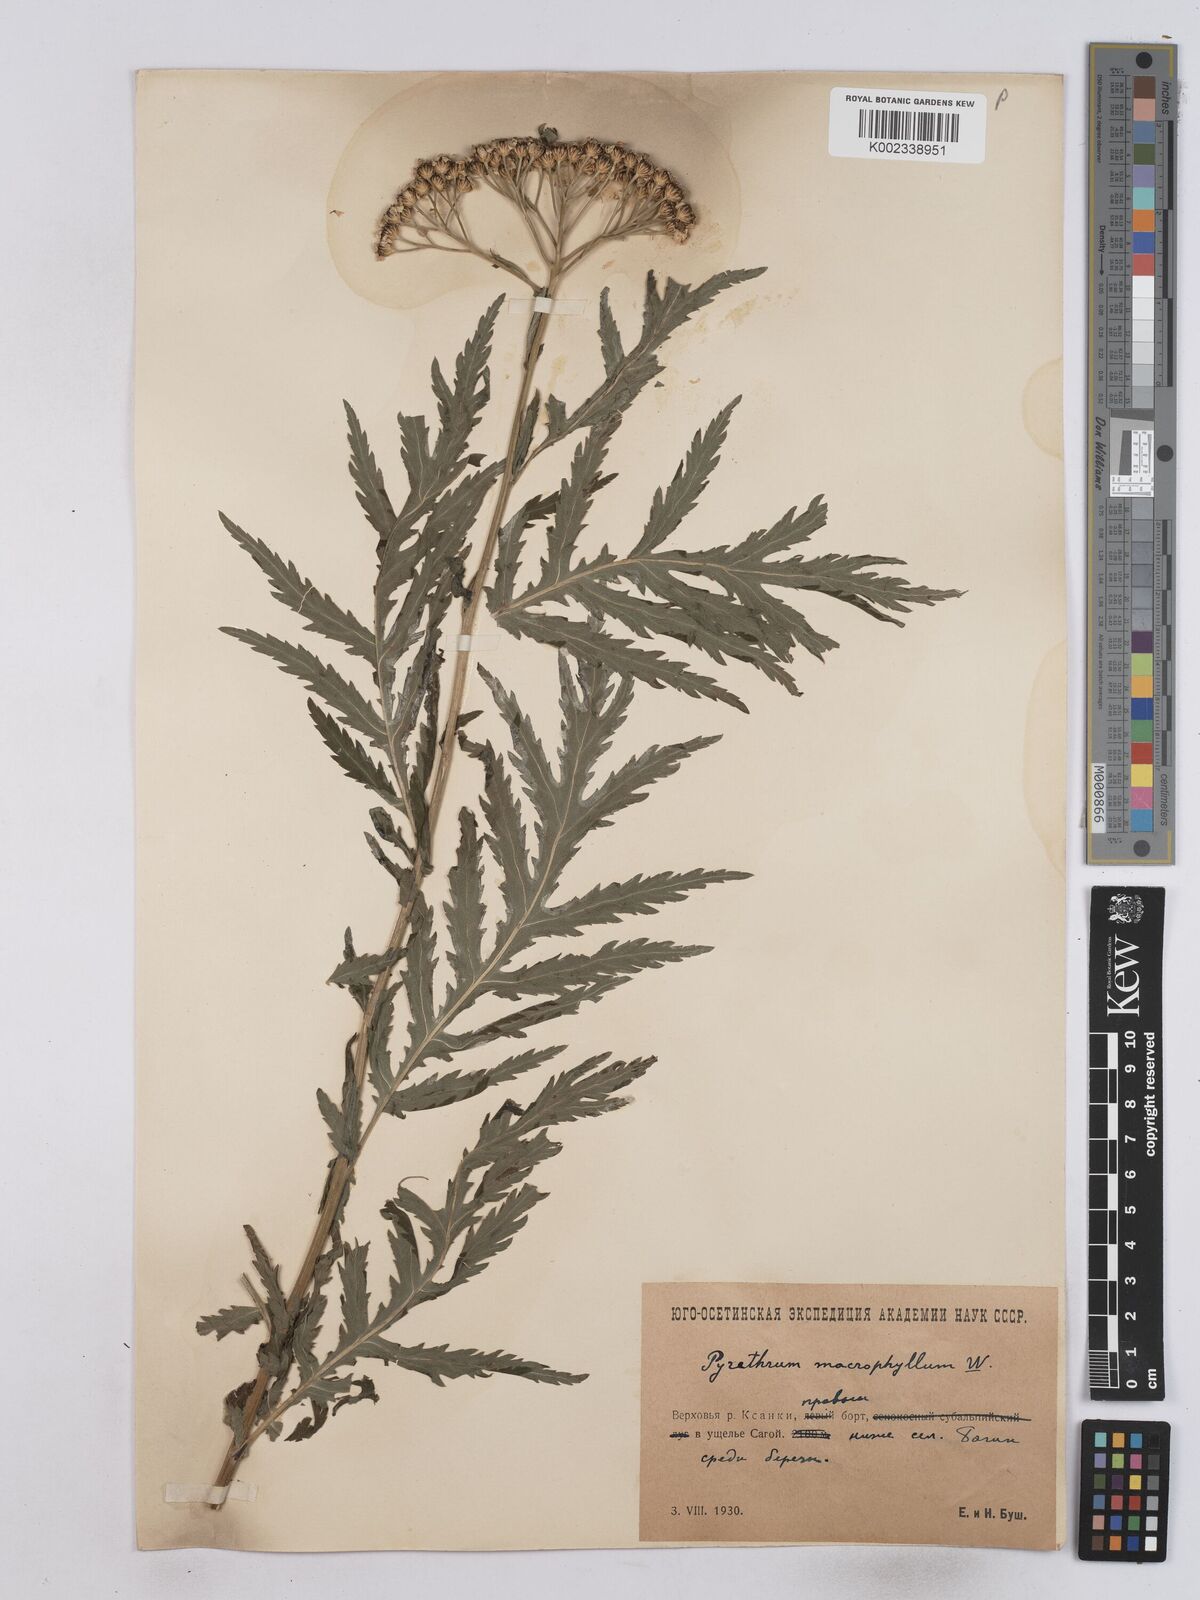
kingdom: Plantae
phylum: Tracheophyta
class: Magnoliopsida
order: Asterales
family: Asteraceae
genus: Tanacetum
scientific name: Tanacetum macrophyllum
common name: Rayed tansy
